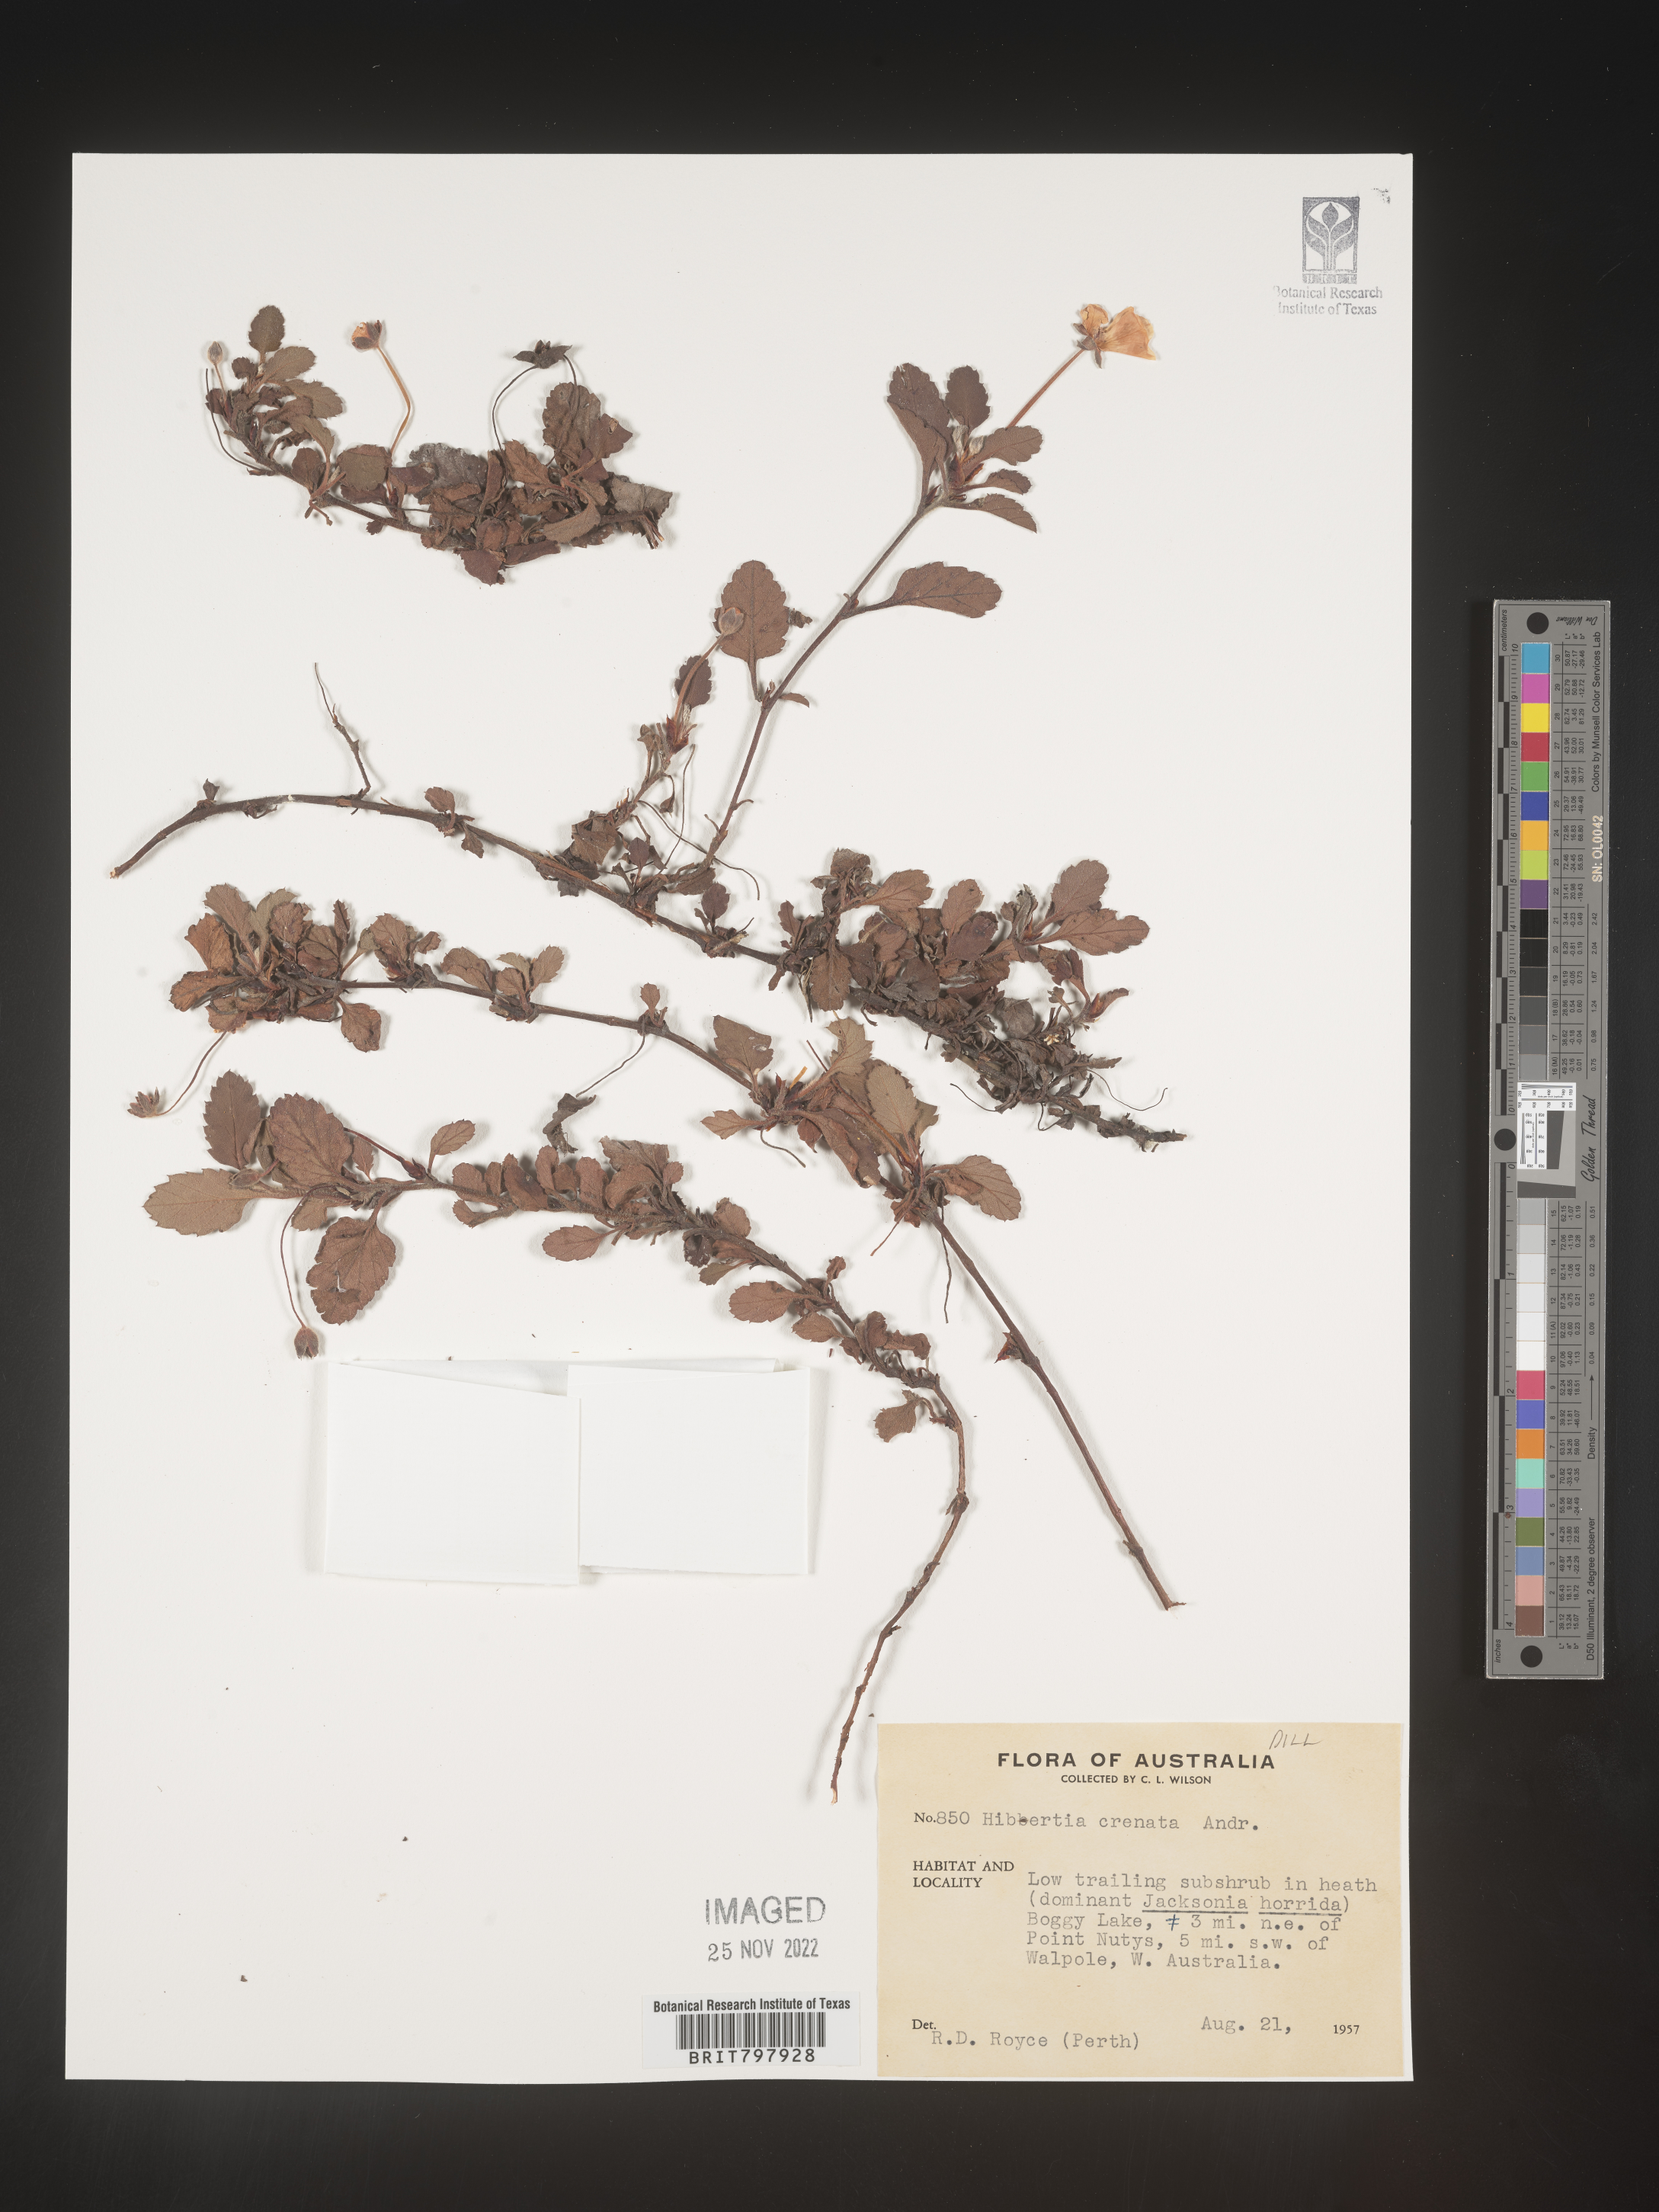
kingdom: Plantae
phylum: Tracheophyta
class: Magnoliopsida
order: Dilleniales
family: Dilleniaceae
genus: Hibbertia
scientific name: Hibbertia
